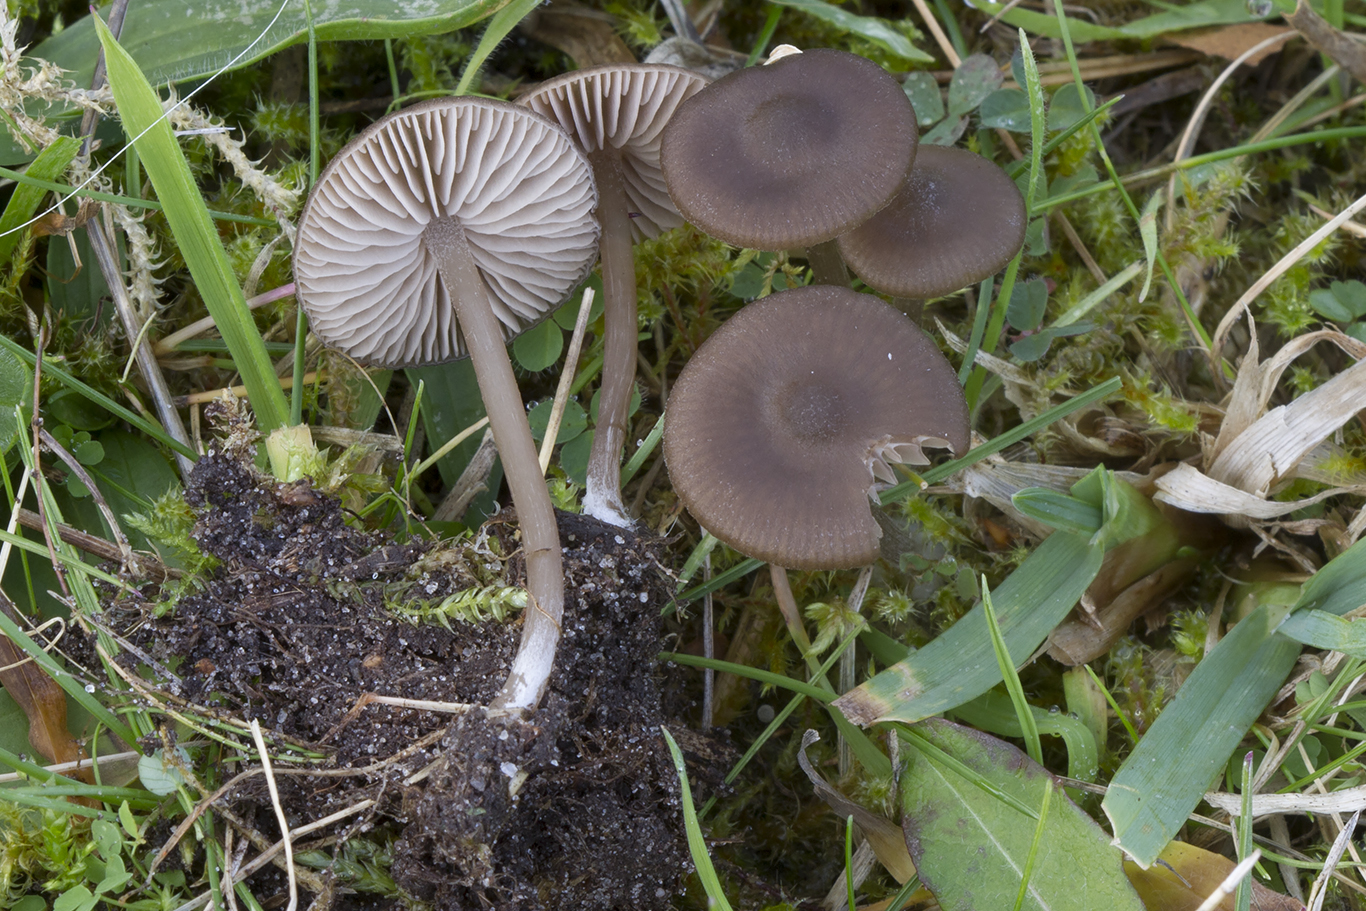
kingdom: Fungi
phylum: Basidiomycota
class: Agaricomycetes
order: Agaricales
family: Entolomataceae
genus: Entoloma
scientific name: Entoloma vindobonense
